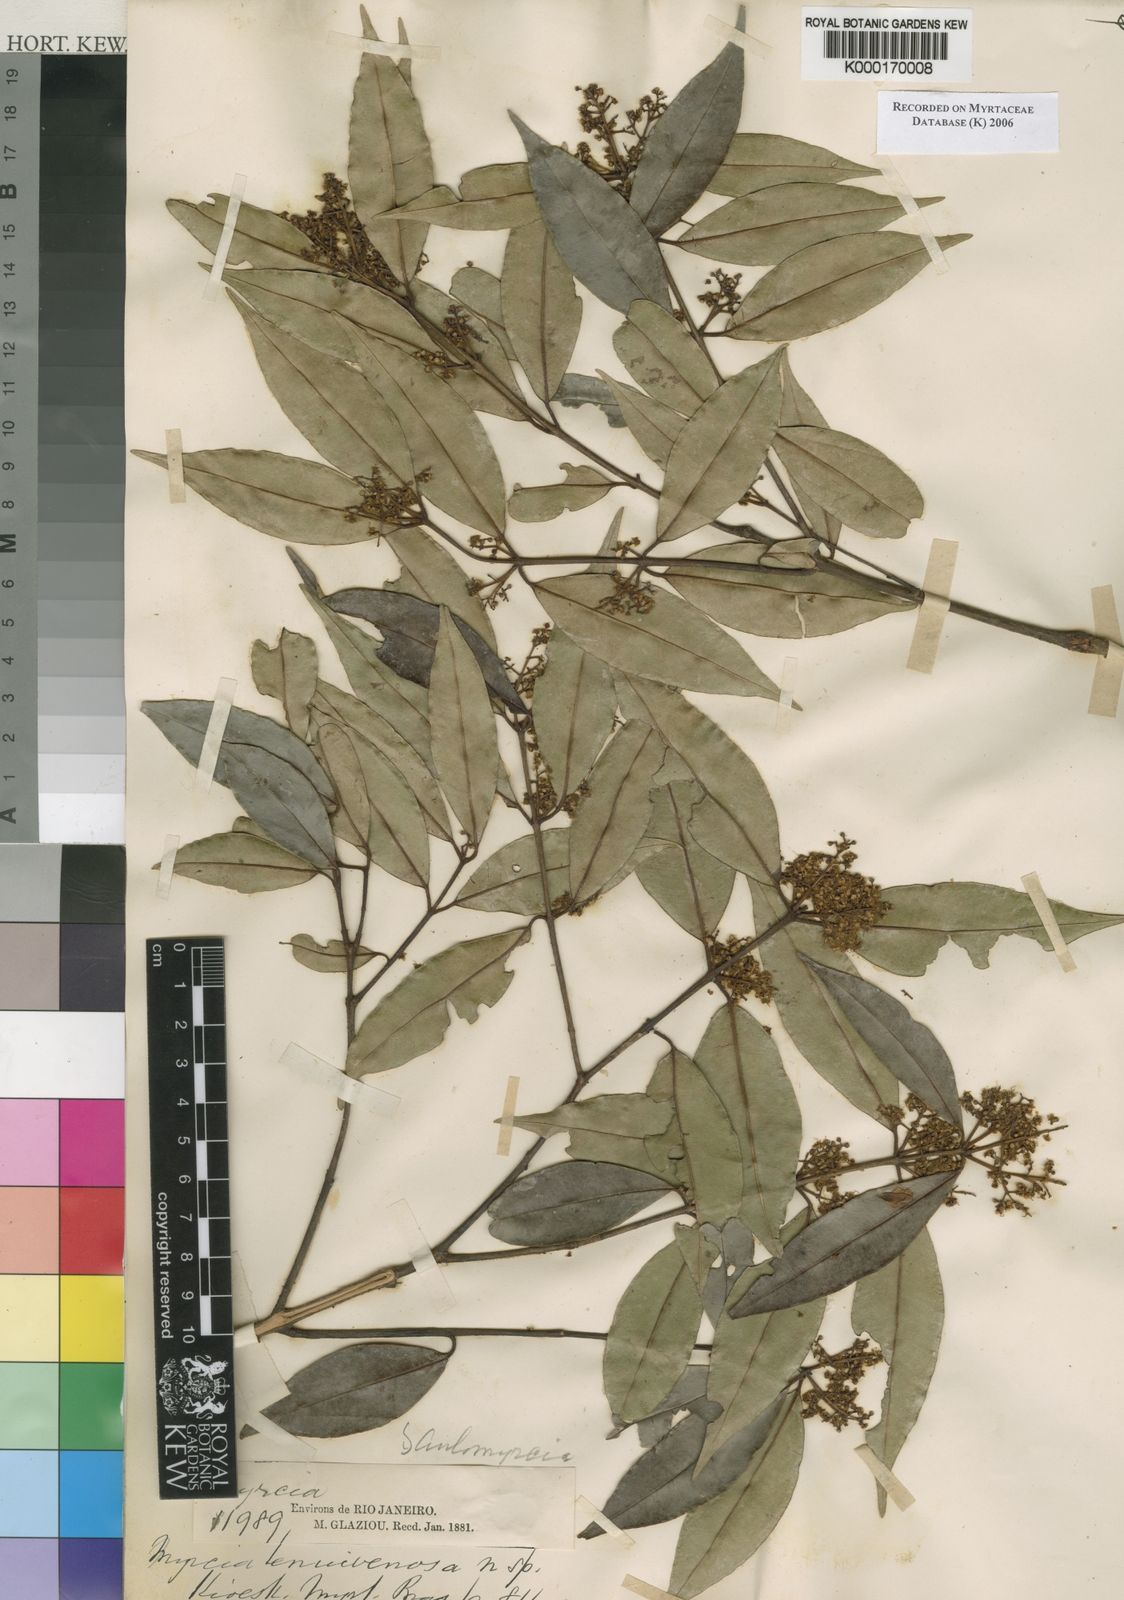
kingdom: Plantae
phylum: Tracheophyta
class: Magnoliopsida
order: Myrtales
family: Myrtaceae
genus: Myrcia
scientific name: Myrcia tenuivenosa
